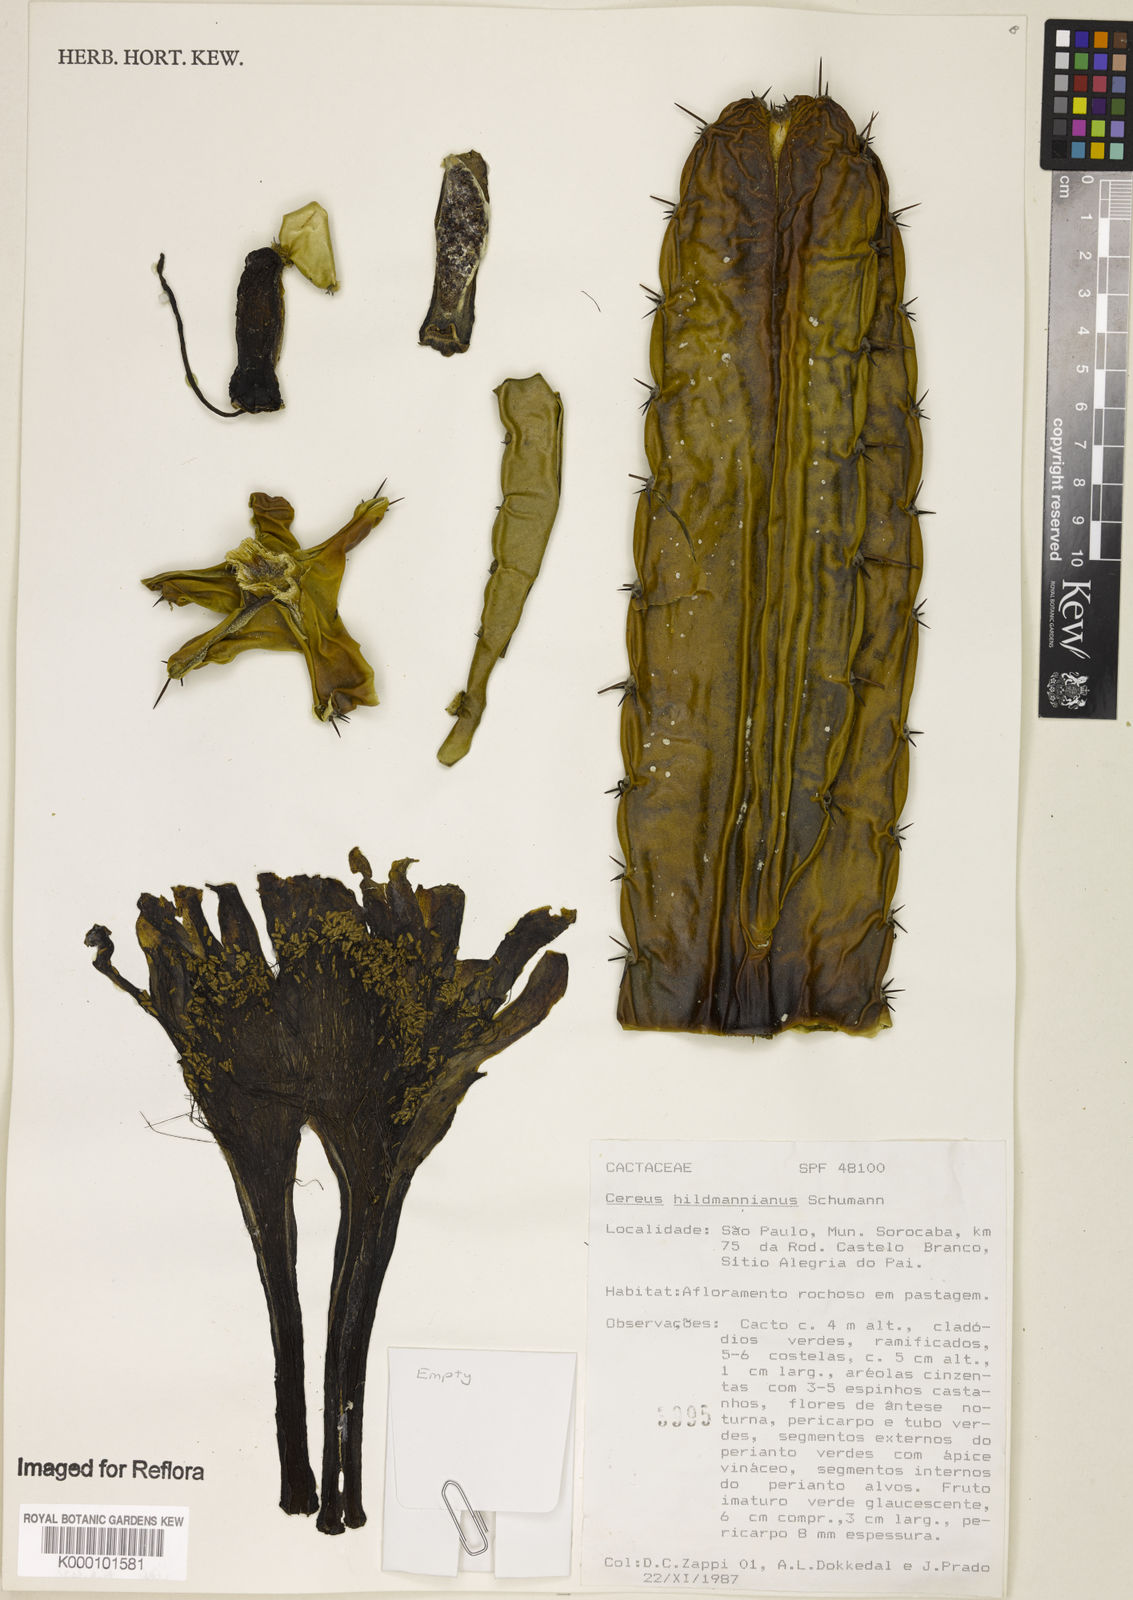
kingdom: Plantae
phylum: Tracheophyta
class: Magnoliopsida
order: Caryophyllales
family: Cactaceae
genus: Cereus
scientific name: Cereus hildmannianus
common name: Hedge cactus
